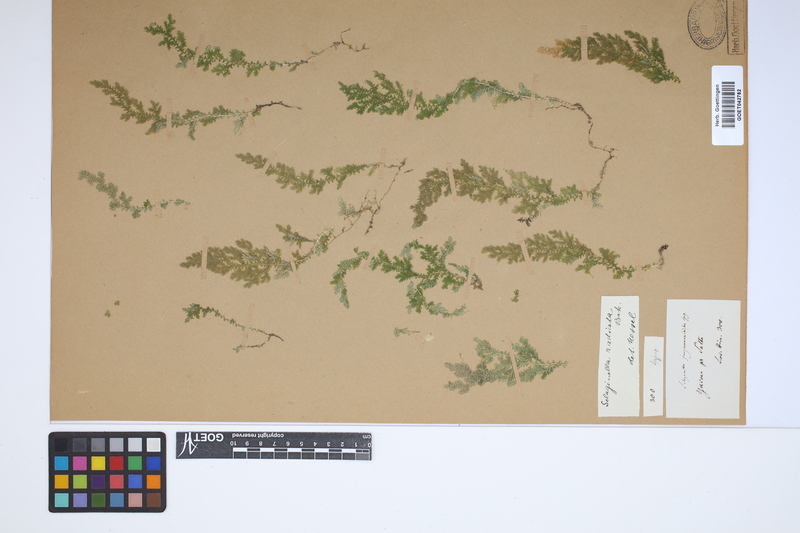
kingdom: Plantae
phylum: Tracheophyta
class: Lycopodiopsida
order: Selaginellales
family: Selaginellaceae
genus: Selaginella
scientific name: Selaginella radiata
